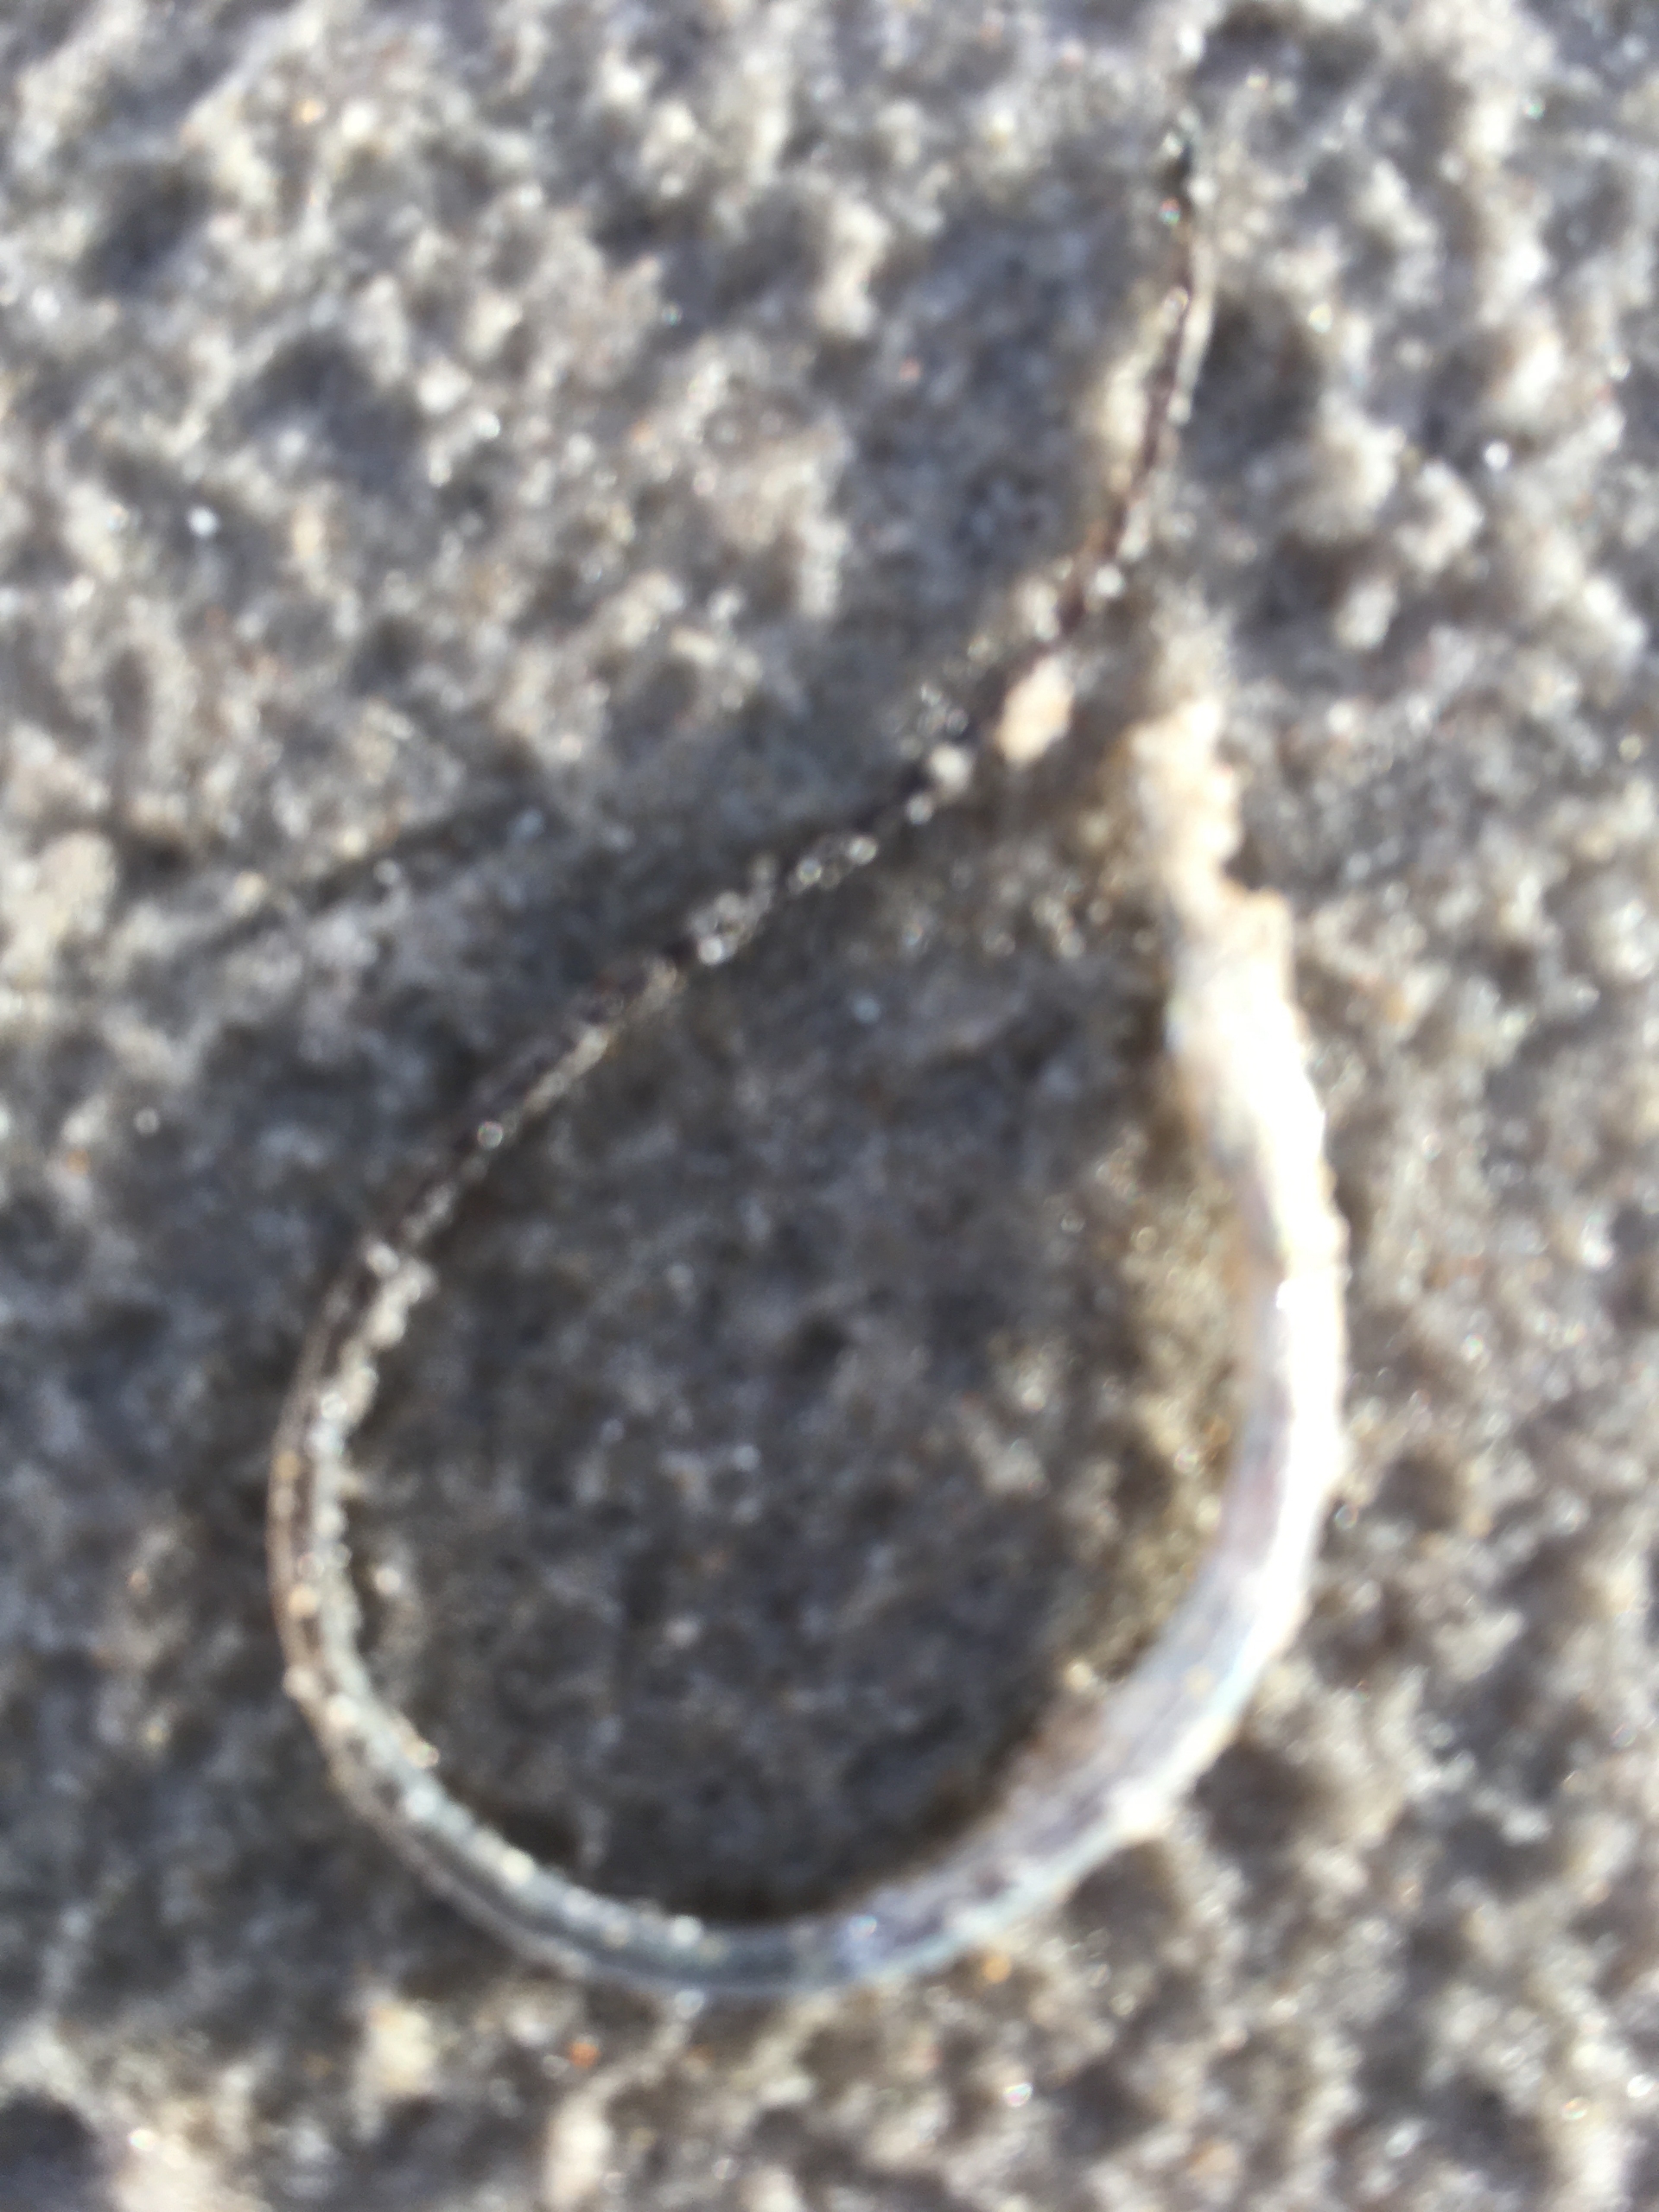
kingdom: Animalia
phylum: Chordata
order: Syngnathiformes
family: Syngnathidae
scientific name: Syngnathidae
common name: Nålefiskfamilien
